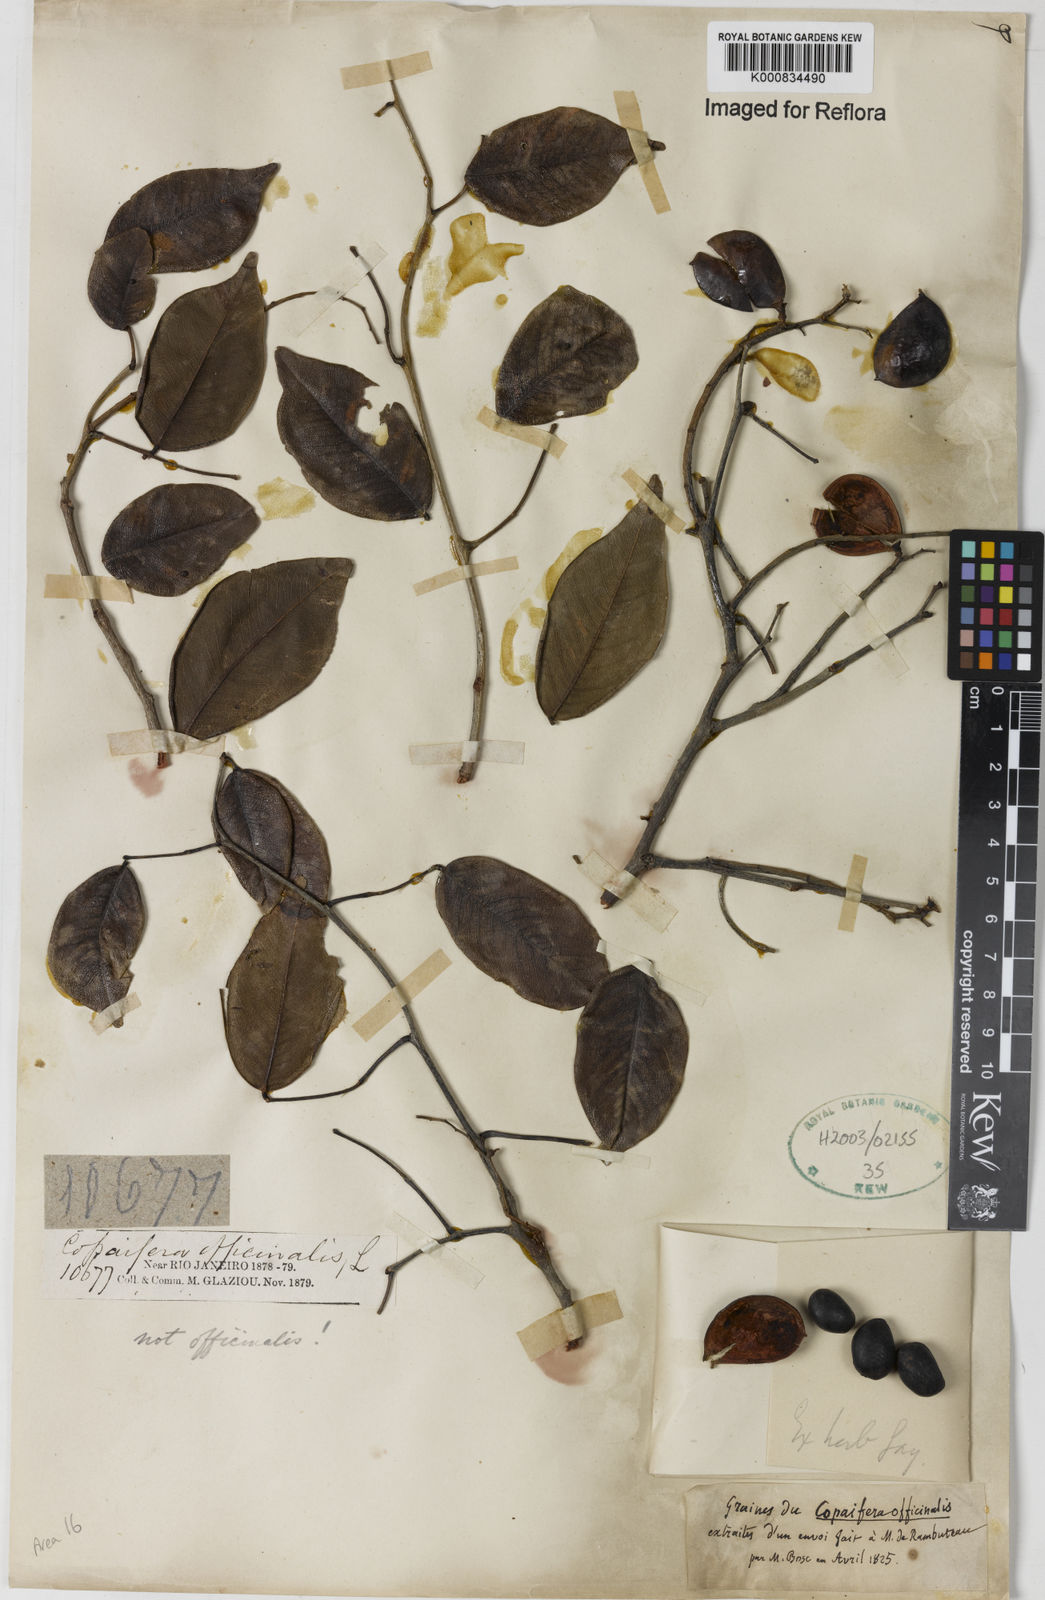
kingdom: Plantae
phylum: Tracheophyta
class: Magnoliopsida
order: Fabales
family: Fabaceae
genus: Copaifera
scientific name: Copaifera
